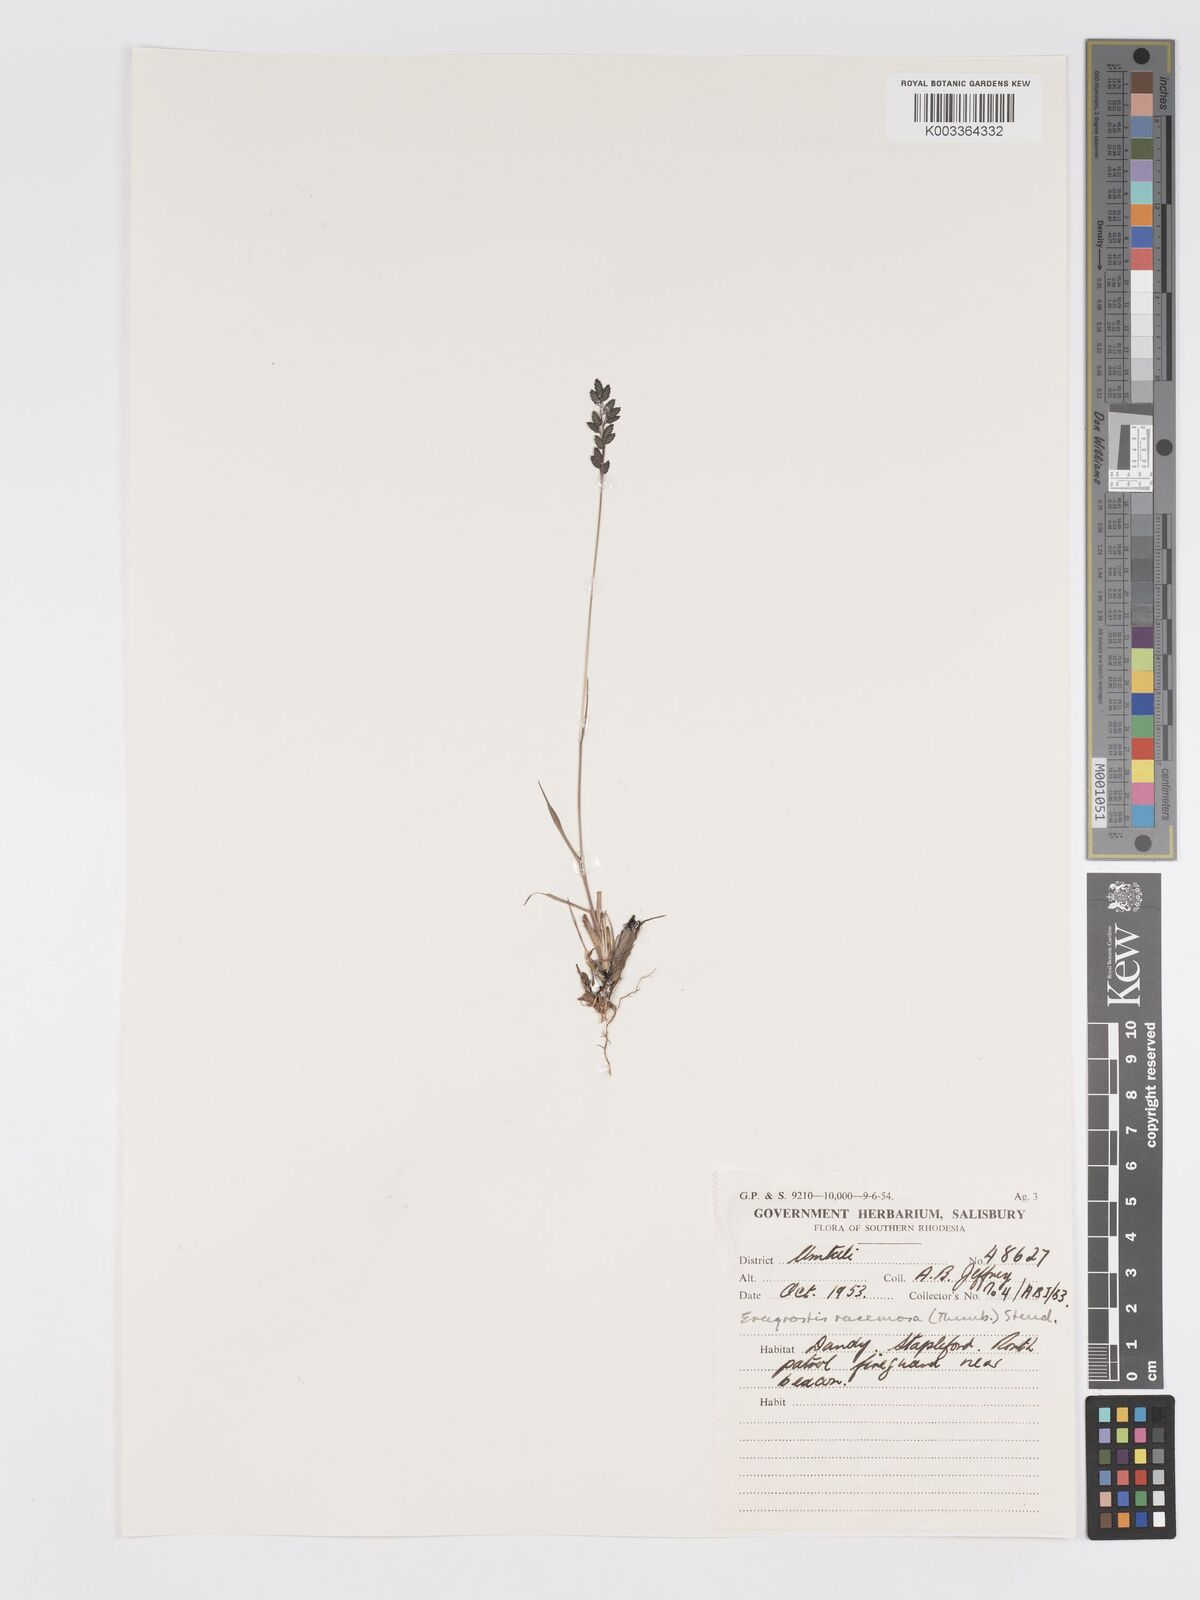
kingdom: Plantae
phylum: Tracheophyta
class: Liliopsida
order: Poales
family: Poaceae
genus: Eragrostis
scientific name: Eragrostis racemosa
